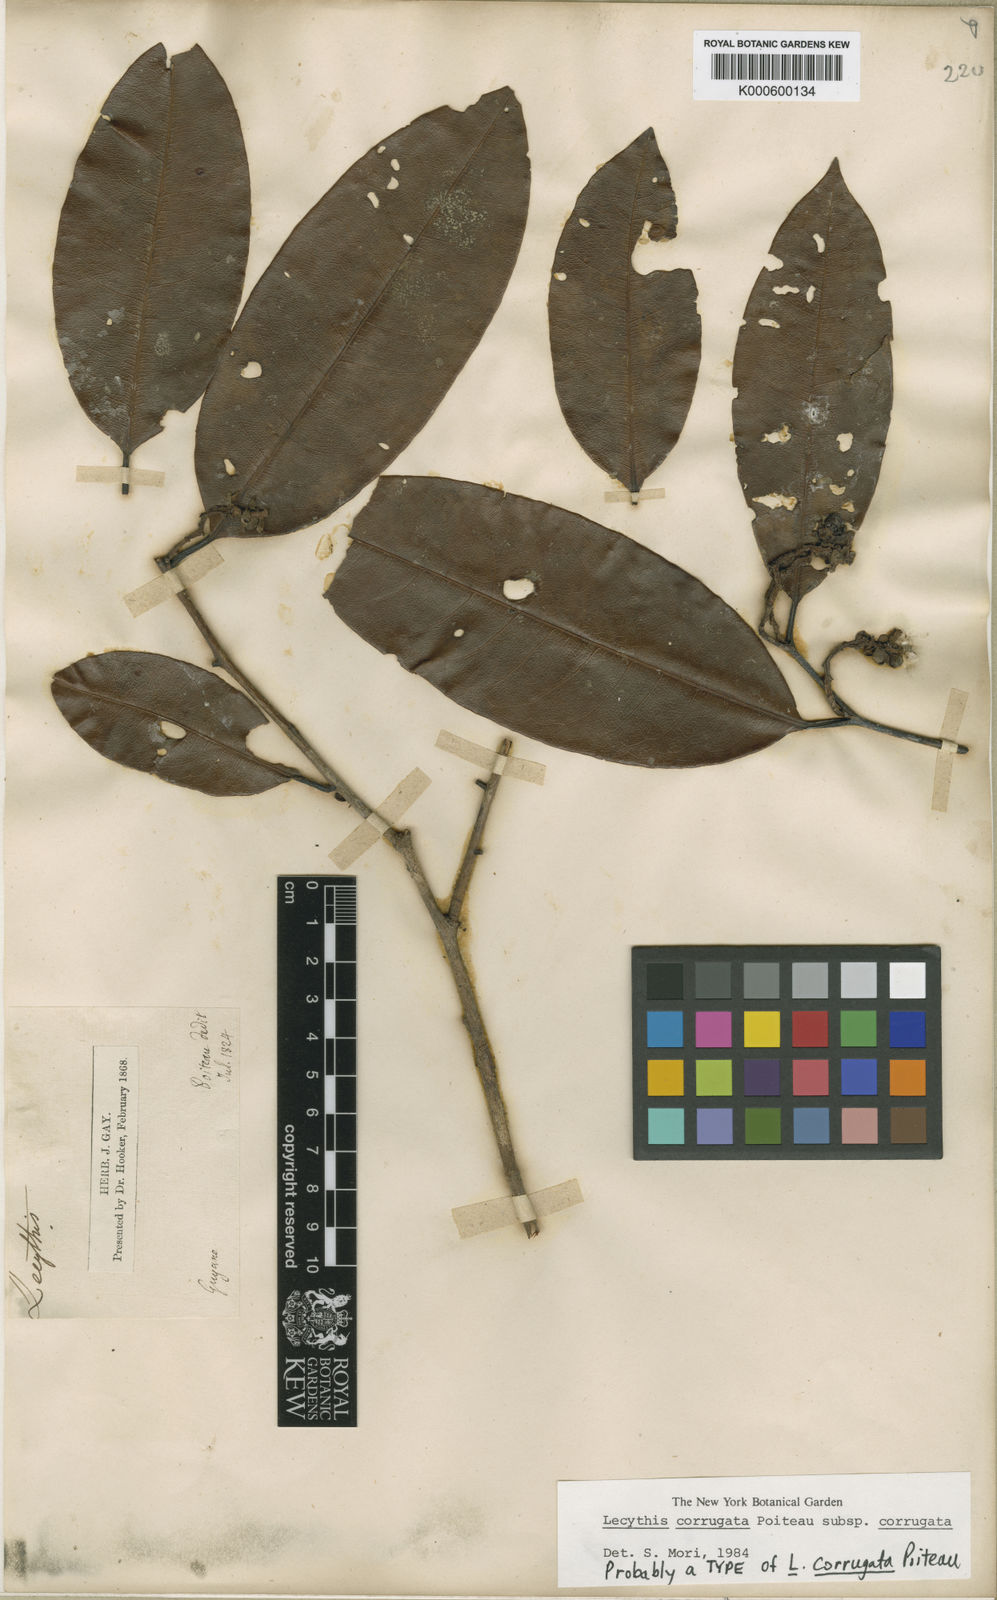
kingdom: Plantae
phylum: Tracheophyta
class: Magnoliopsida
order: Ericales
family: Lecythidaceae
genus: Lecythis
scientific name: Lecythis corrugata
